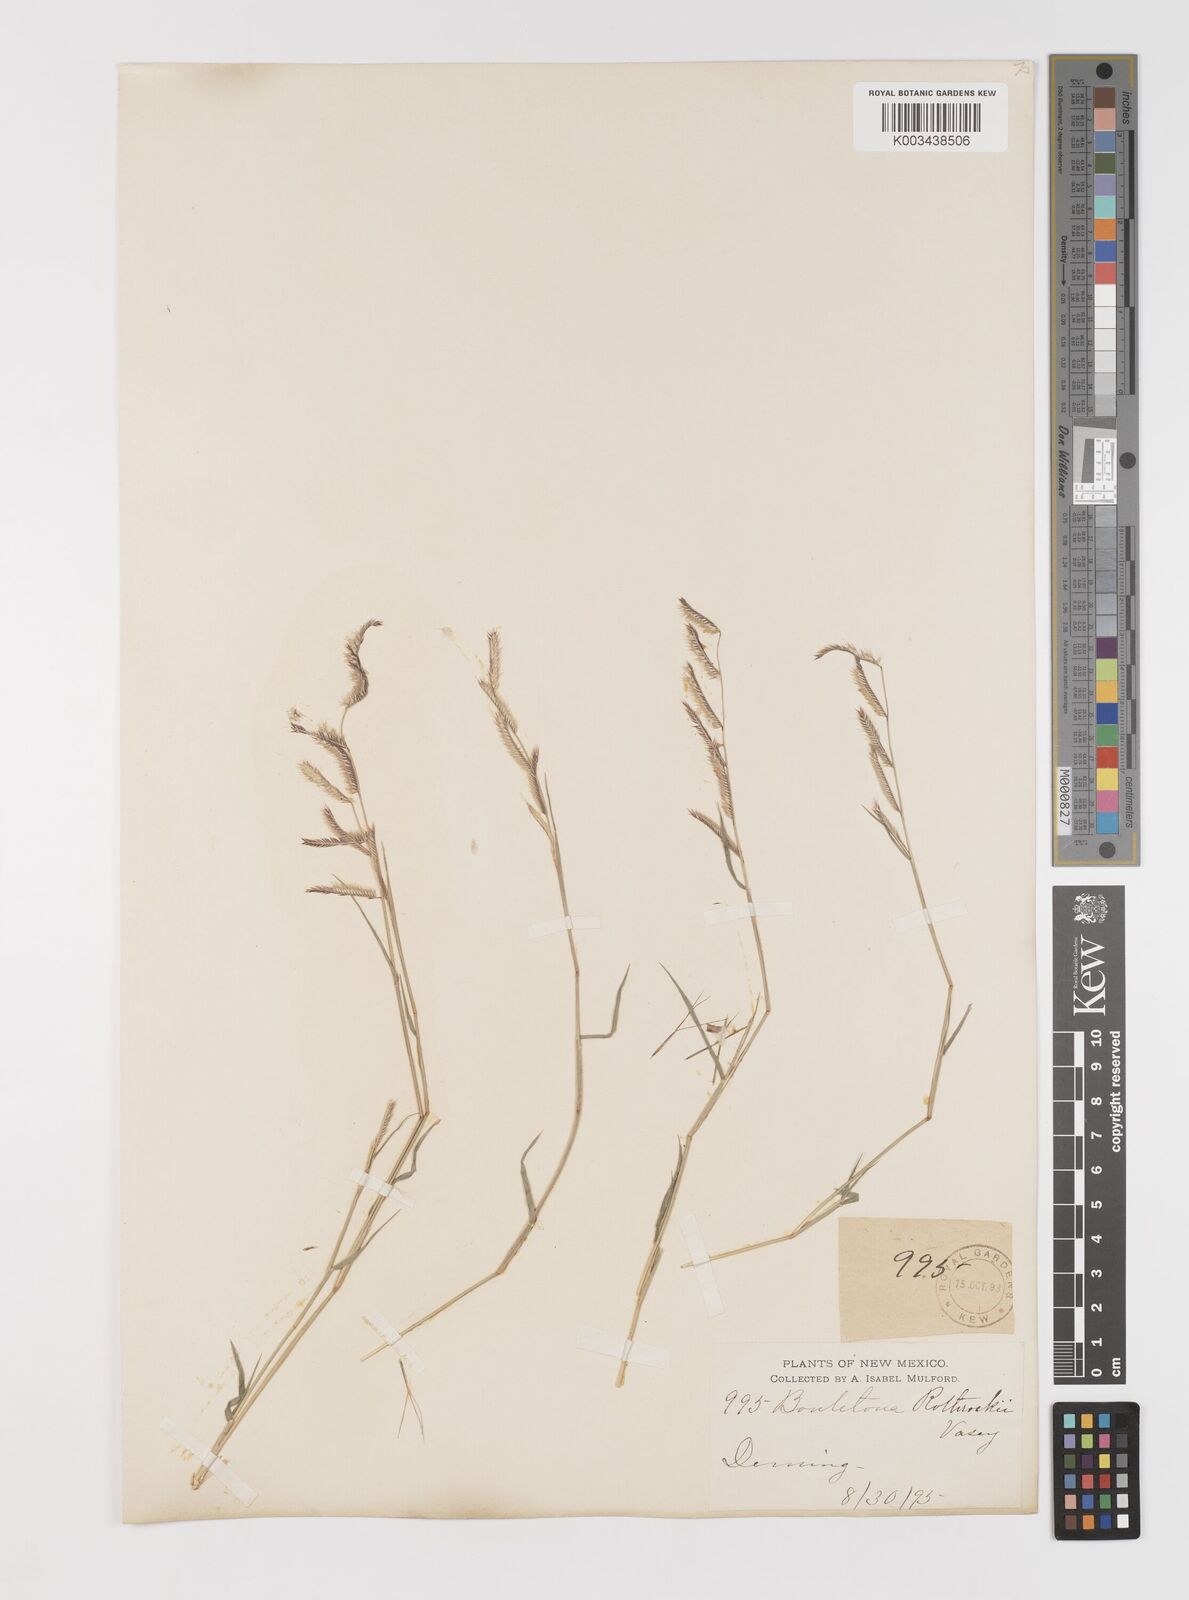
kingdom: Plantae
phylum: Tracheophyta
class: Liliopsida
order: Poales
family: Poaceae
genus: Bouteloua
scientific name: Bouteloua
